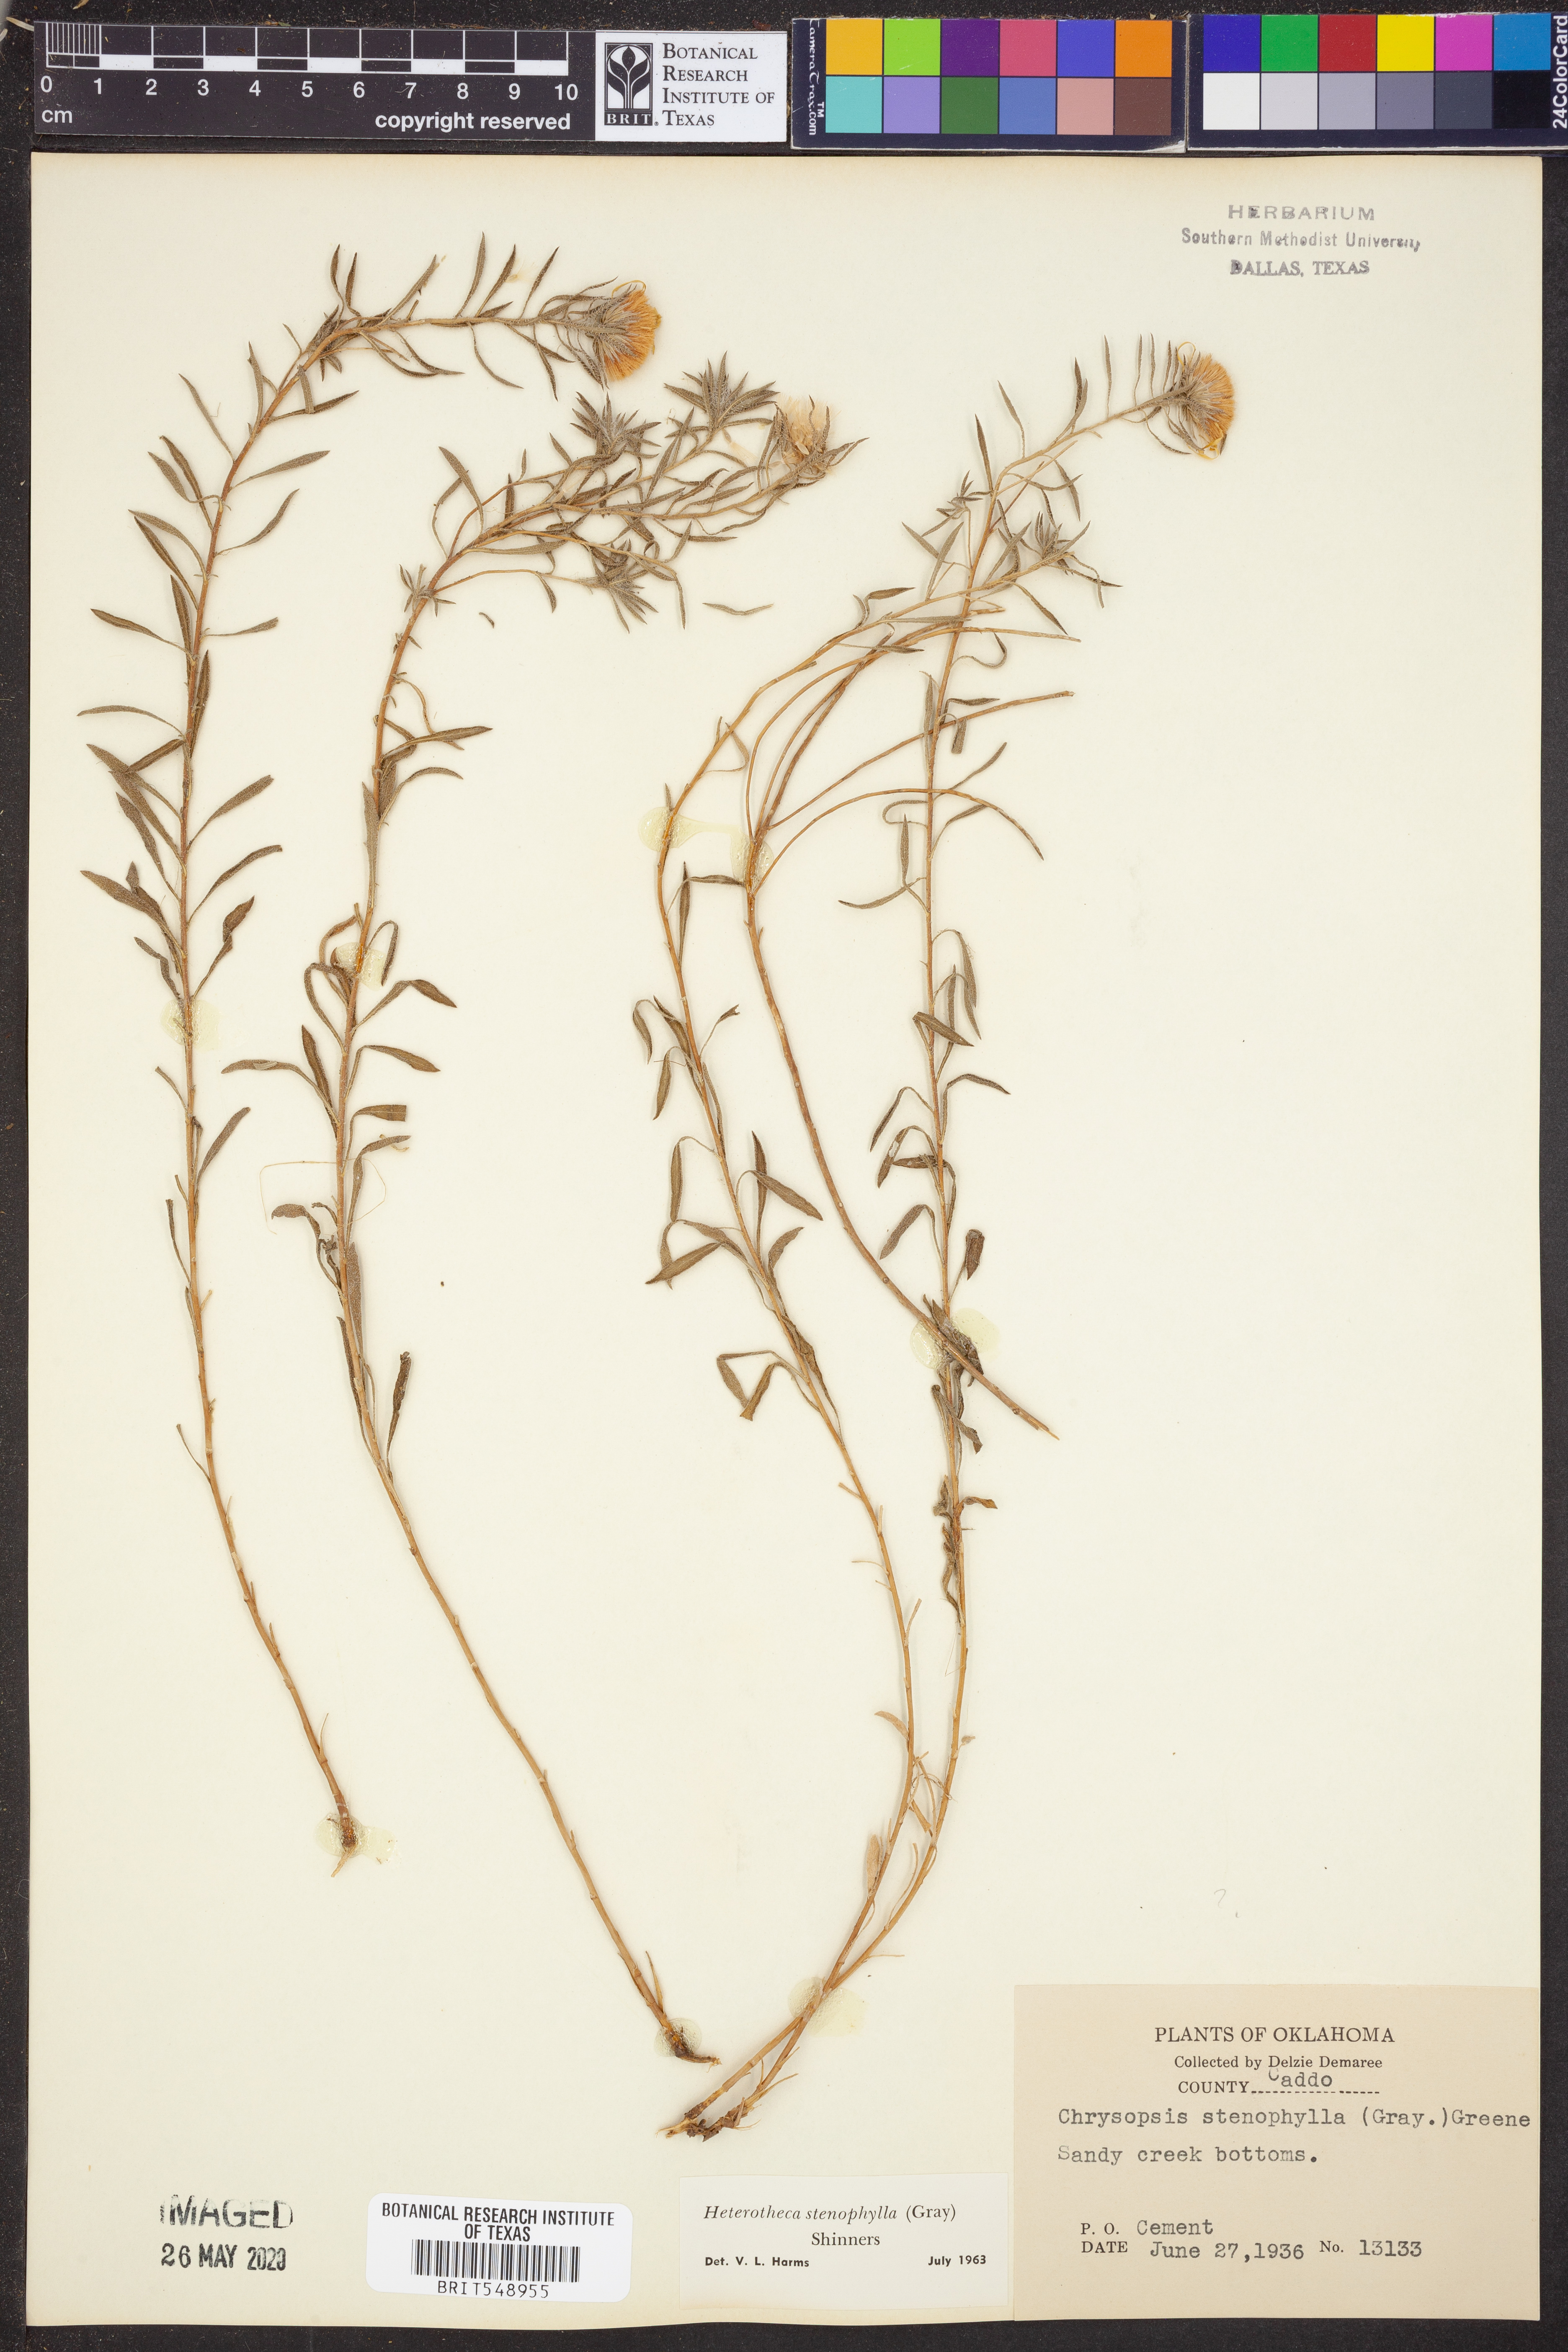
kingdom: Plantae
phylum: Tracheophyta
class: Magnoliopsida
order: Asterales
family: Asteraceae
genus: Heterotheca
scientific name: Heterotheca stenophylla
